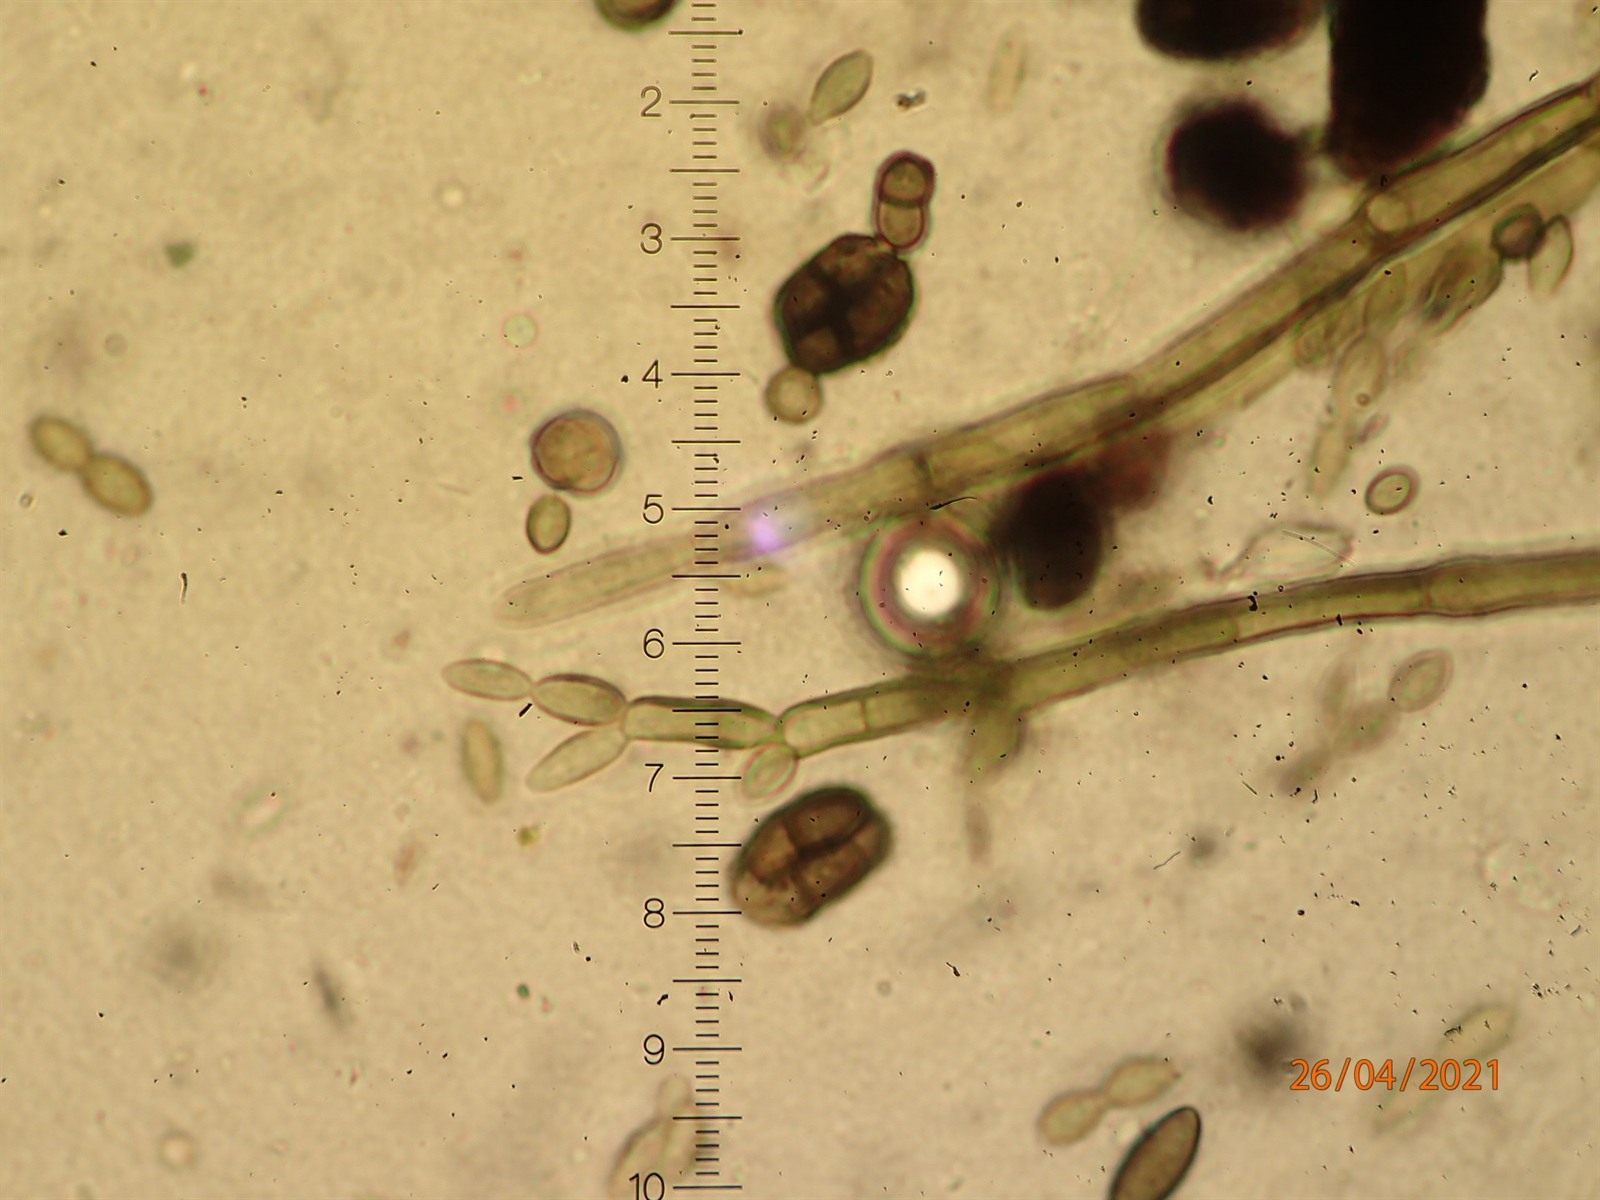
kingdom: Fungi
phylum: Ascomycota
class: Leotiomycetes
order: Helotiales
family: Amorphothecaceae
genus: Sorocybe
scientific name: Sorocybe resinae
